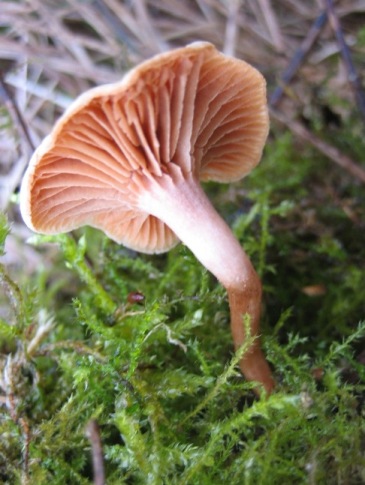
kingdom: Fungi
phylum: Basidiomycota
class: Agaricomycetes
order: Agaricales
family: Tubariaceae
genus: Tubaria
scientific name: Tubaria furfuracea
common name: kliddet fnughat
